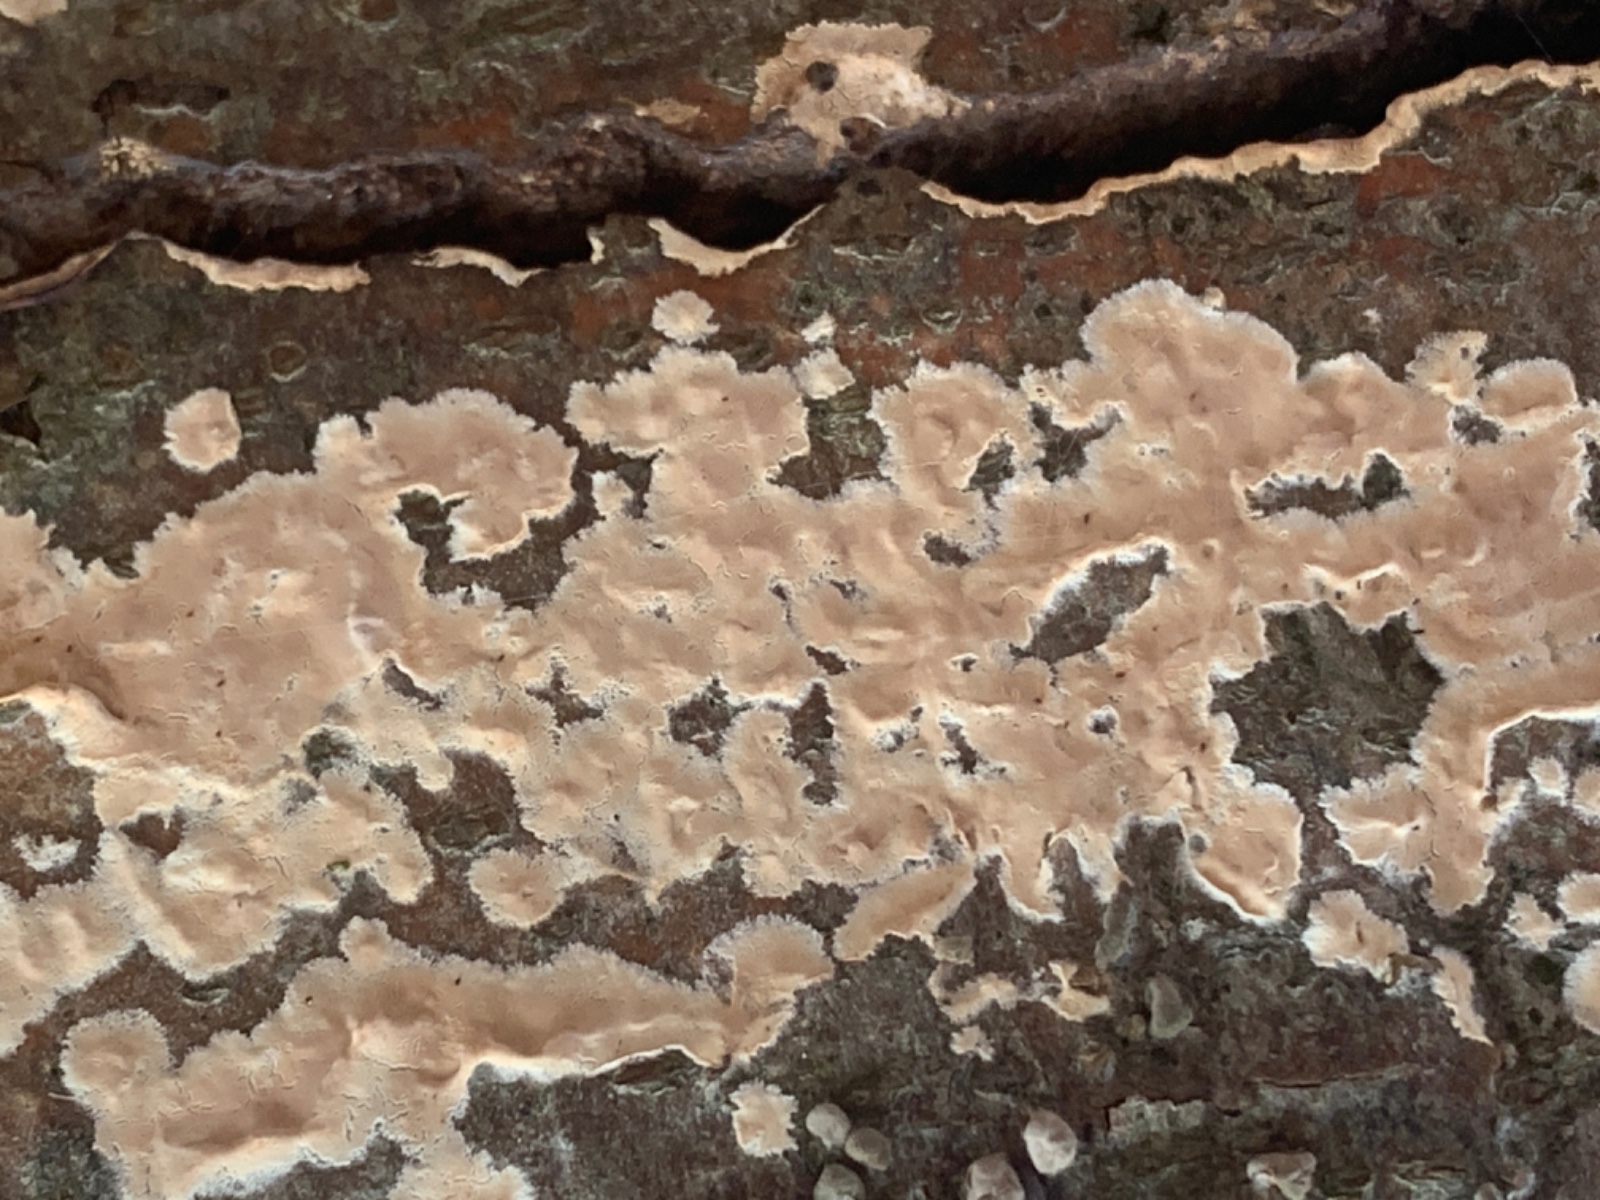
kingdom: Fungi
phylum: Basidiomycota
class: Agaricomycetes
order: Agaricales
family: Physalacriaceae
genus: Cylindrobasidium
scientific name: Cylindrobasidium evolvens
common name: sprækkehinde
